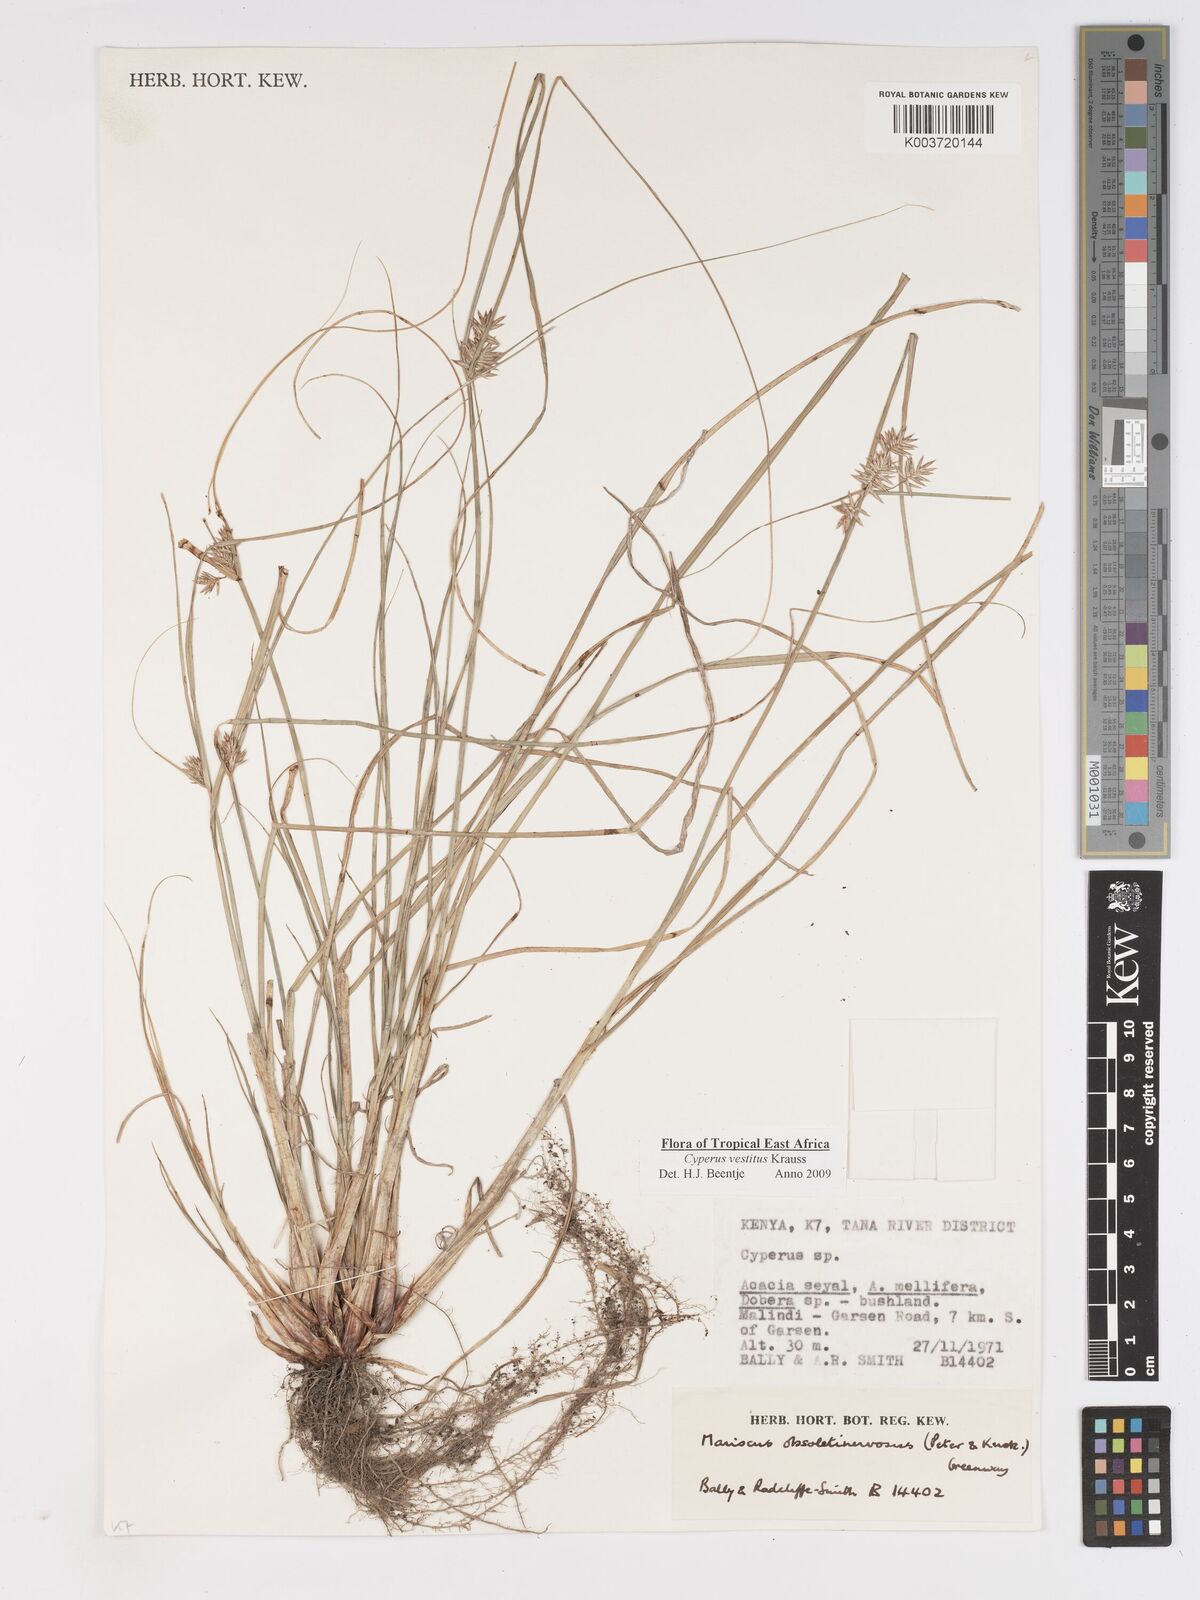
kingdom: Plantae
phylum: Tracheophyta
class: Liliopsida
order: Poales
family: Cyperaceae
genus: Cyperus
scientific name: Cyperus vestitus
